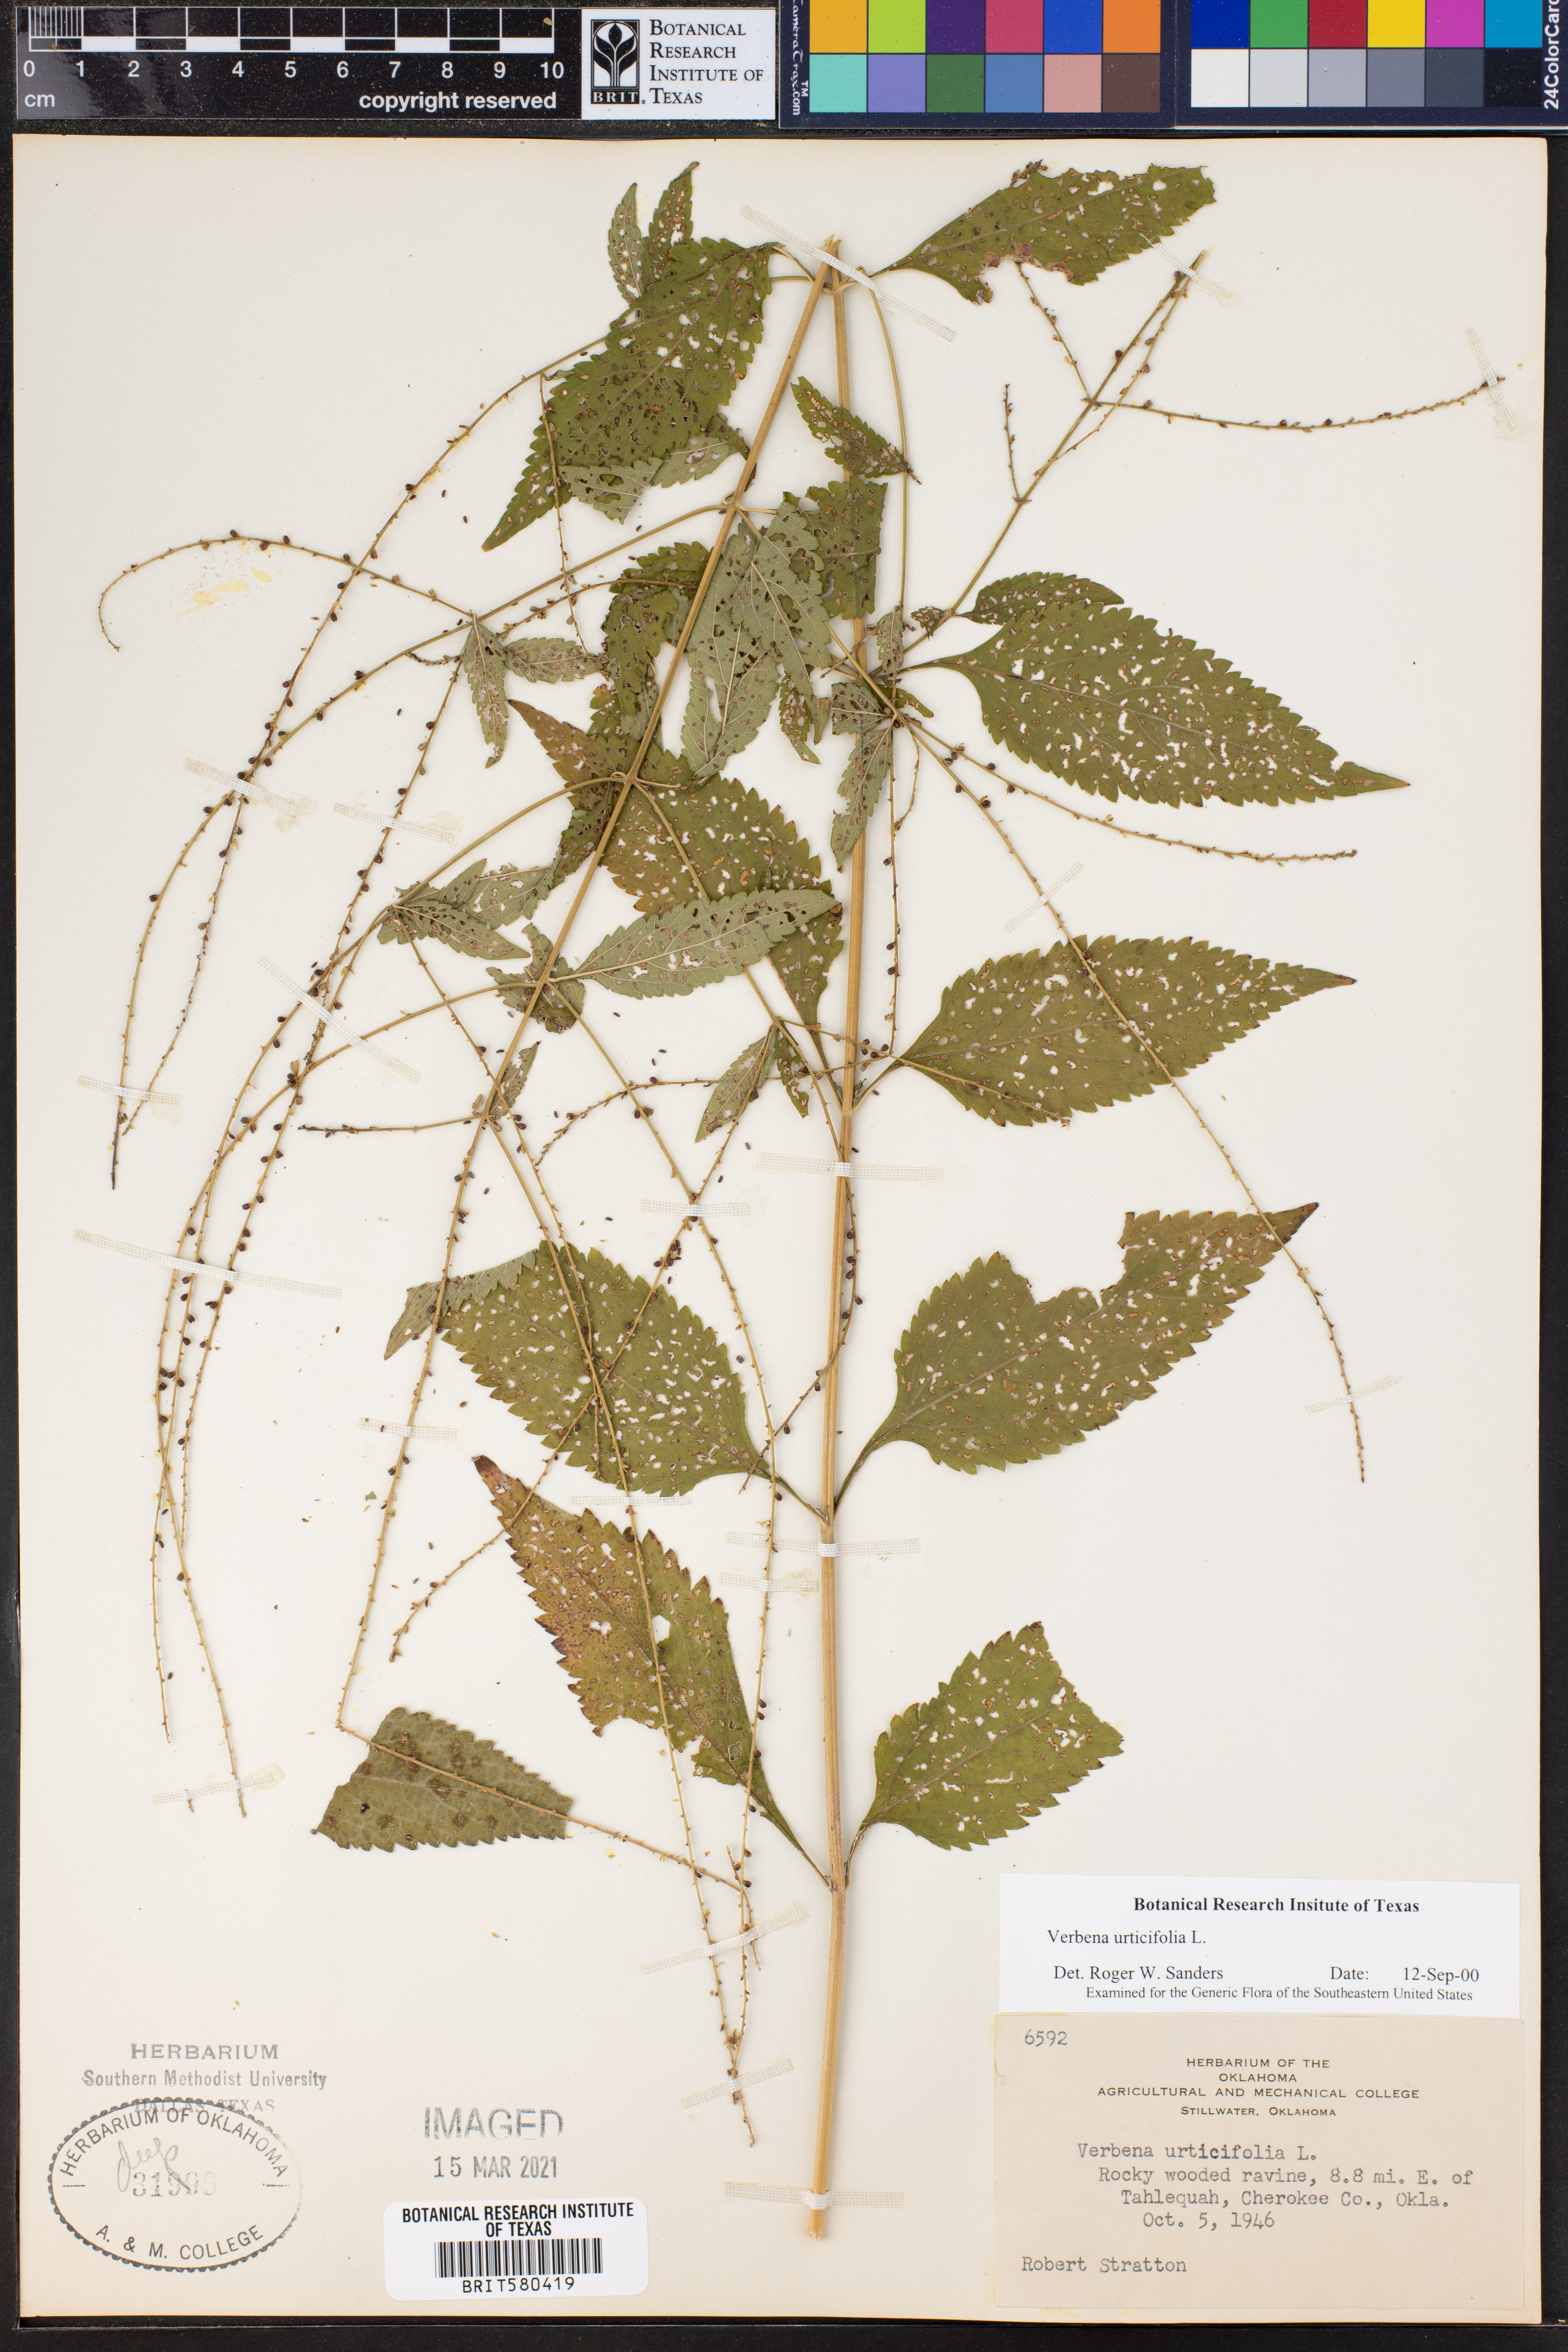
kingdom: Plantae
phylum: Tracheophyta
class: Magnoliopsida
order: Lamiales
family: Verbenaceae
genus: Verbena
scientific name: Verbena urticifolia
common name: Nettle-leaved vervain
